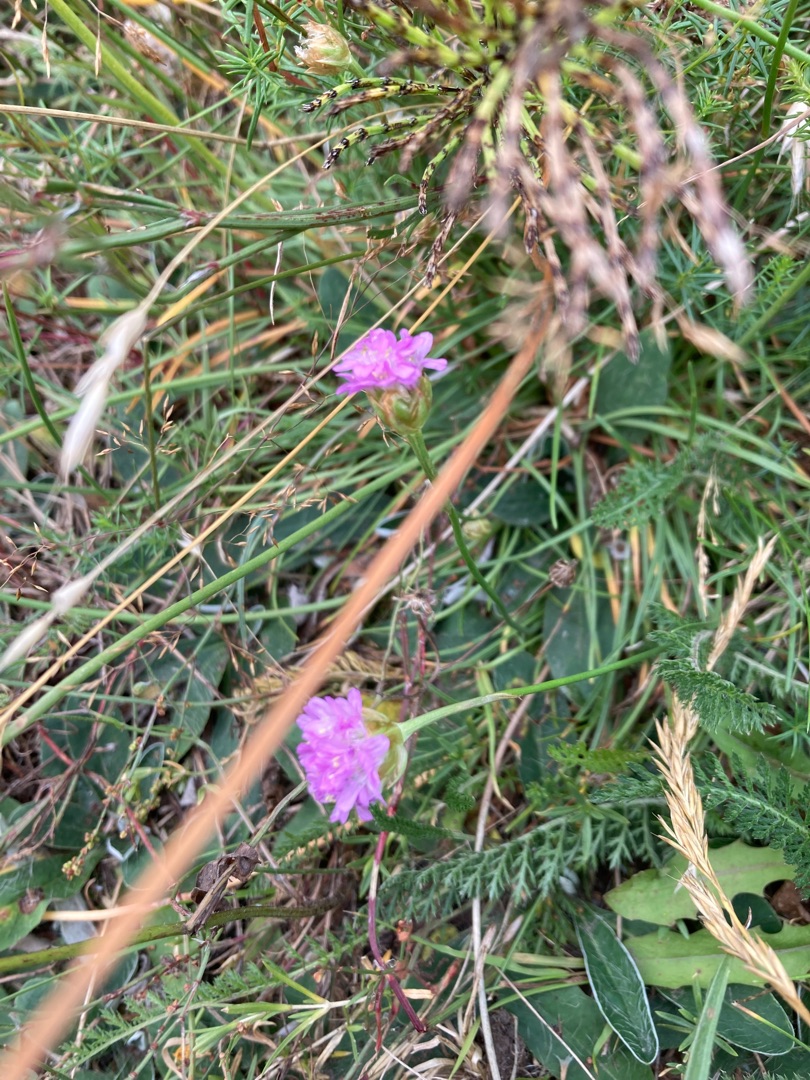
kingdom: Plantae
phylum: Tracheophyta
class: Magnoliopsida
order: Caryophyllales
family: Plumbaginaceae
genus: Armeria
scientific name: Armeria maritima
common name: Engelskgræs
